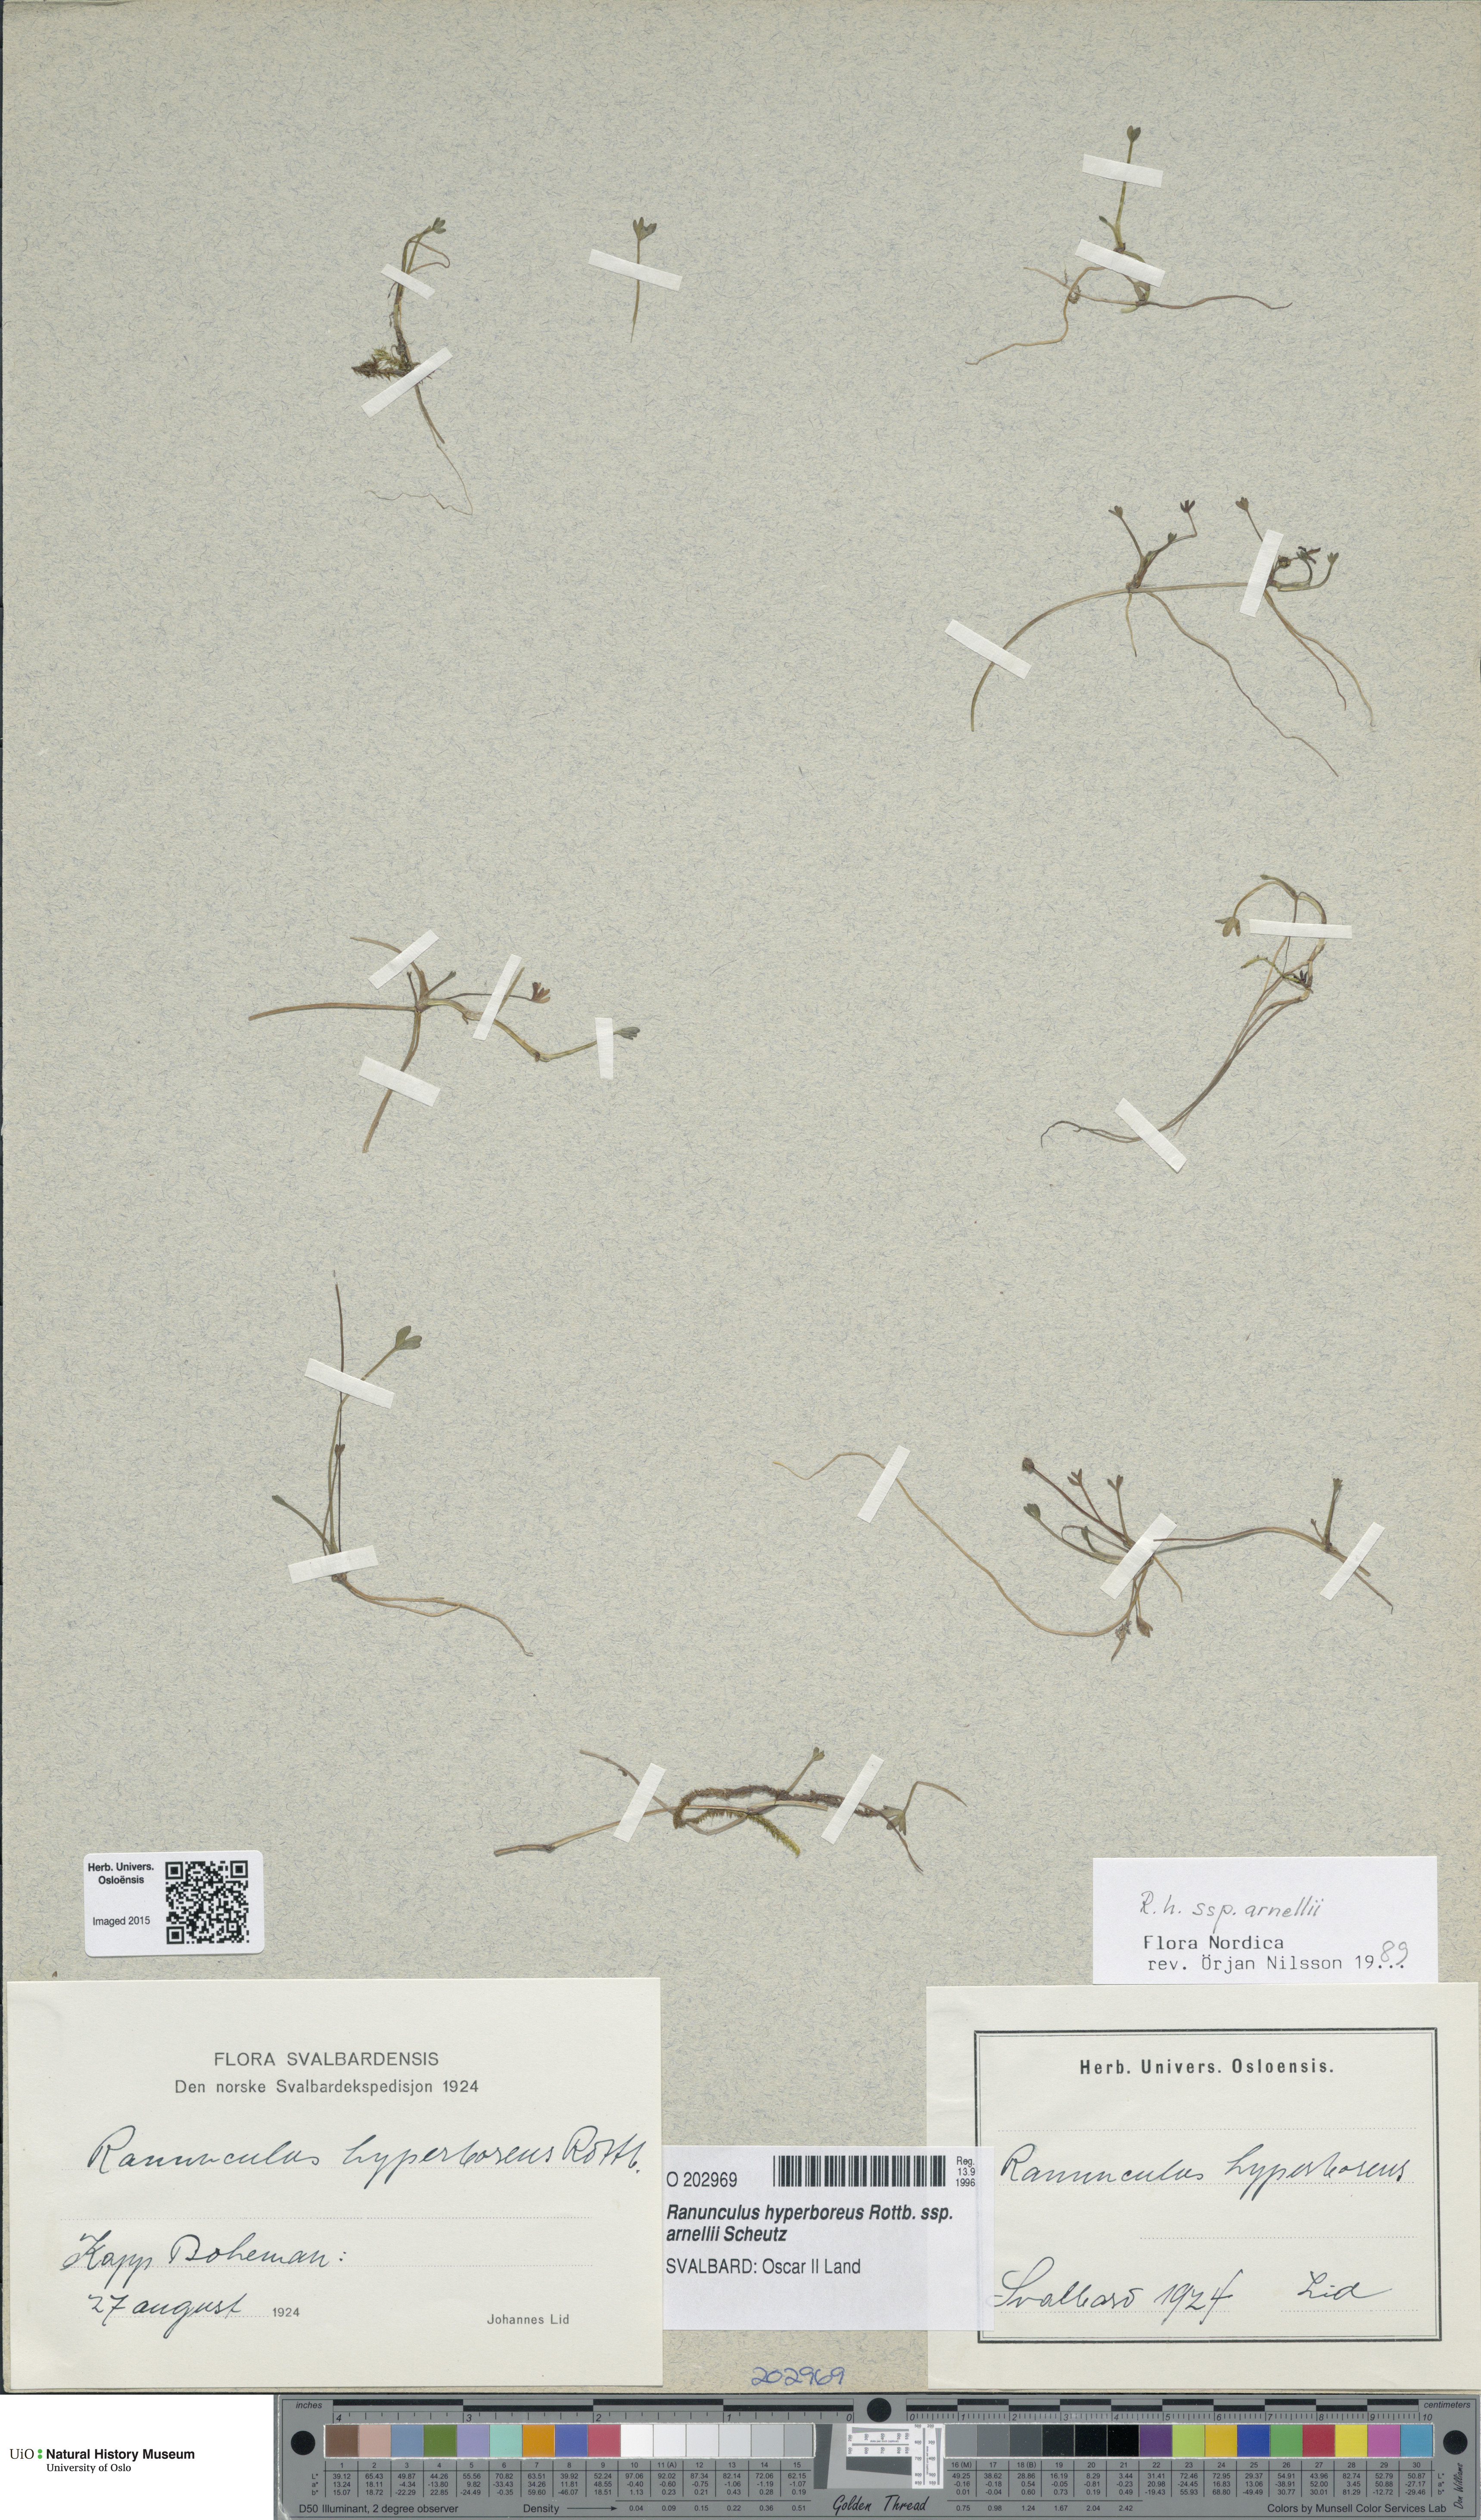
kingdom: Plantae
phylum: Tracheophyta
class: Magnoliopsida
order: Ranunculales
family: Ranunculaceae
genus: Ranunculus
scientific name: Ranunculus hyperboreus
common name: Arctic buttercup
